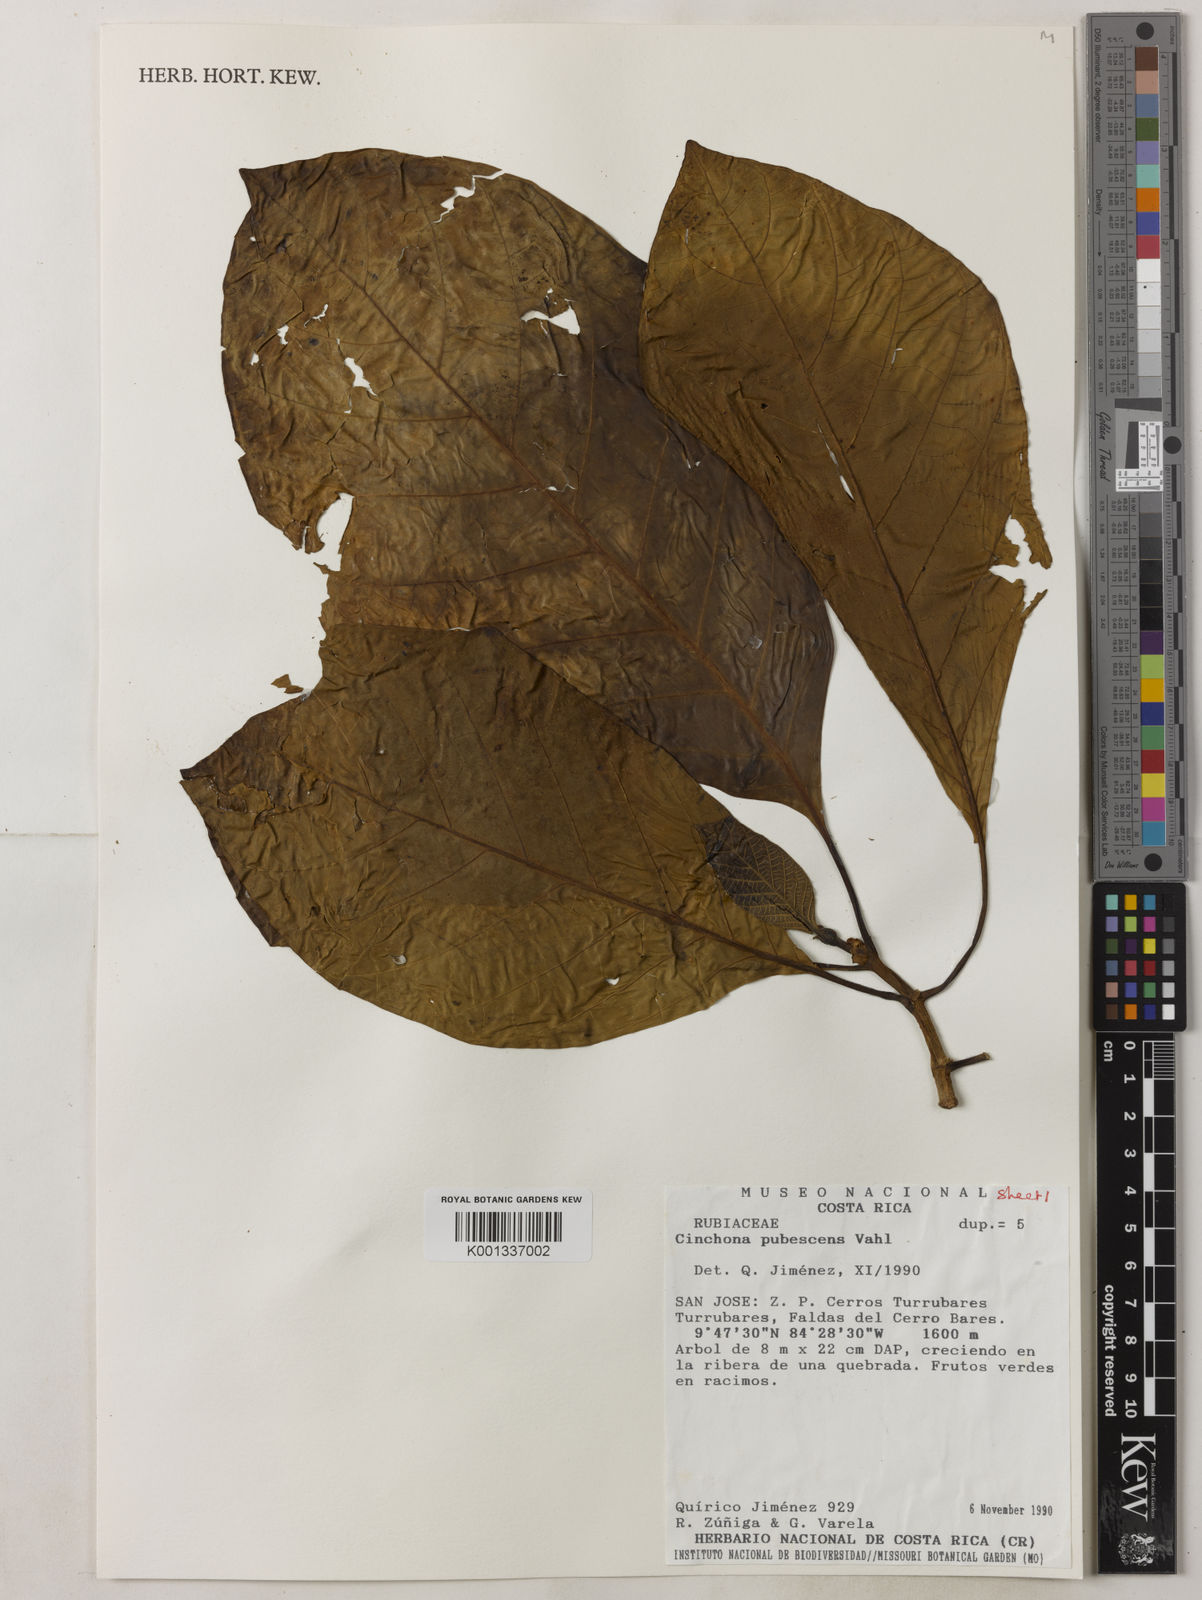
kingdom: Plantae
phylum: Tracheophyta
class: Magnoliopsida
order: Gentianales
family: Rubiaceae
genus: Cinchona
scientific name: Cinchona pubescens
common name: Quinine
